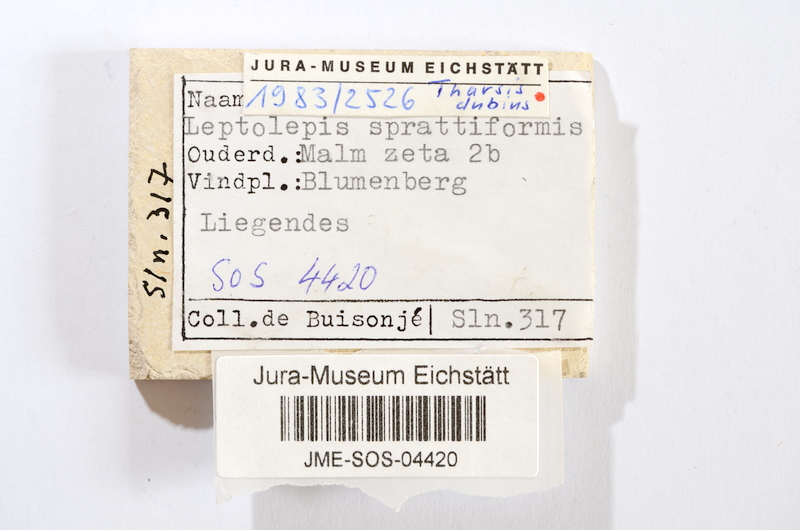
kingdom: Animalia
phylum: Chordata
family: Ascalaboidae
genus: Tharsis
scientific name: Tharsis dubius
